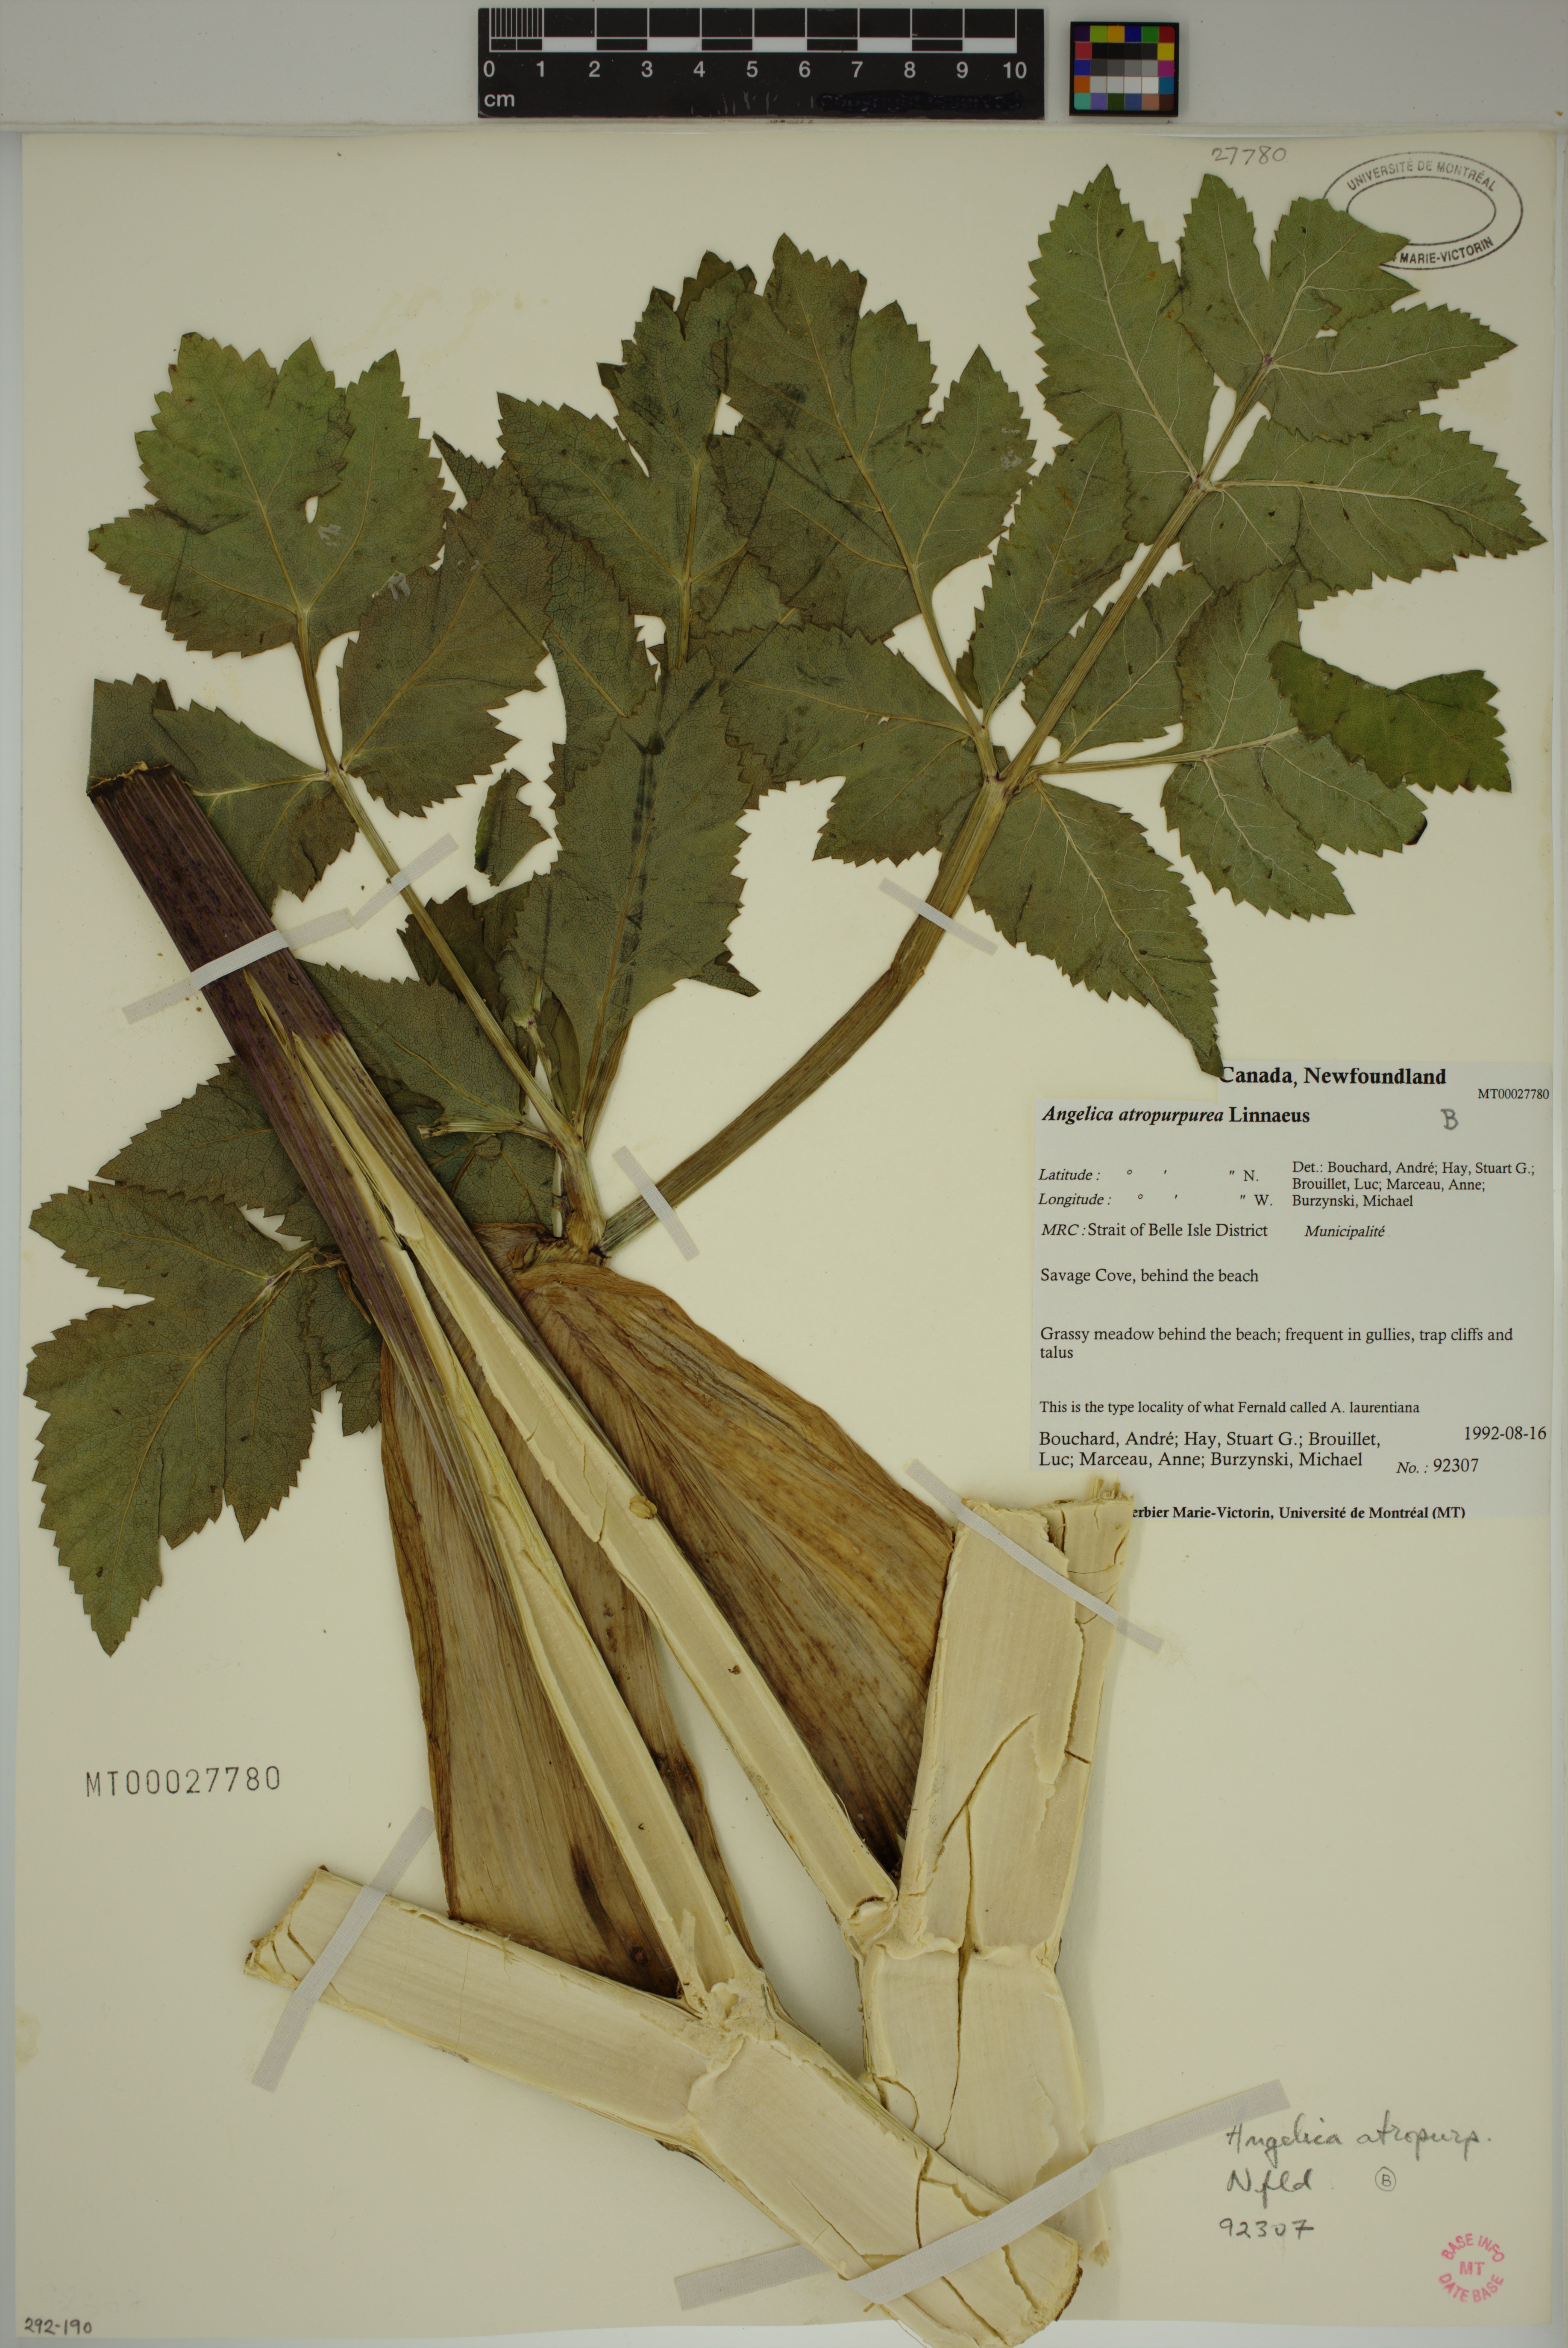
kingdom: Plantae
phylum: Tracheophyta
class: Magnoliopsida
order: Apiales
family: Apiaceae
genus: Angelica
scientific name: Angelica atropurpurea
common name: Great angelica
